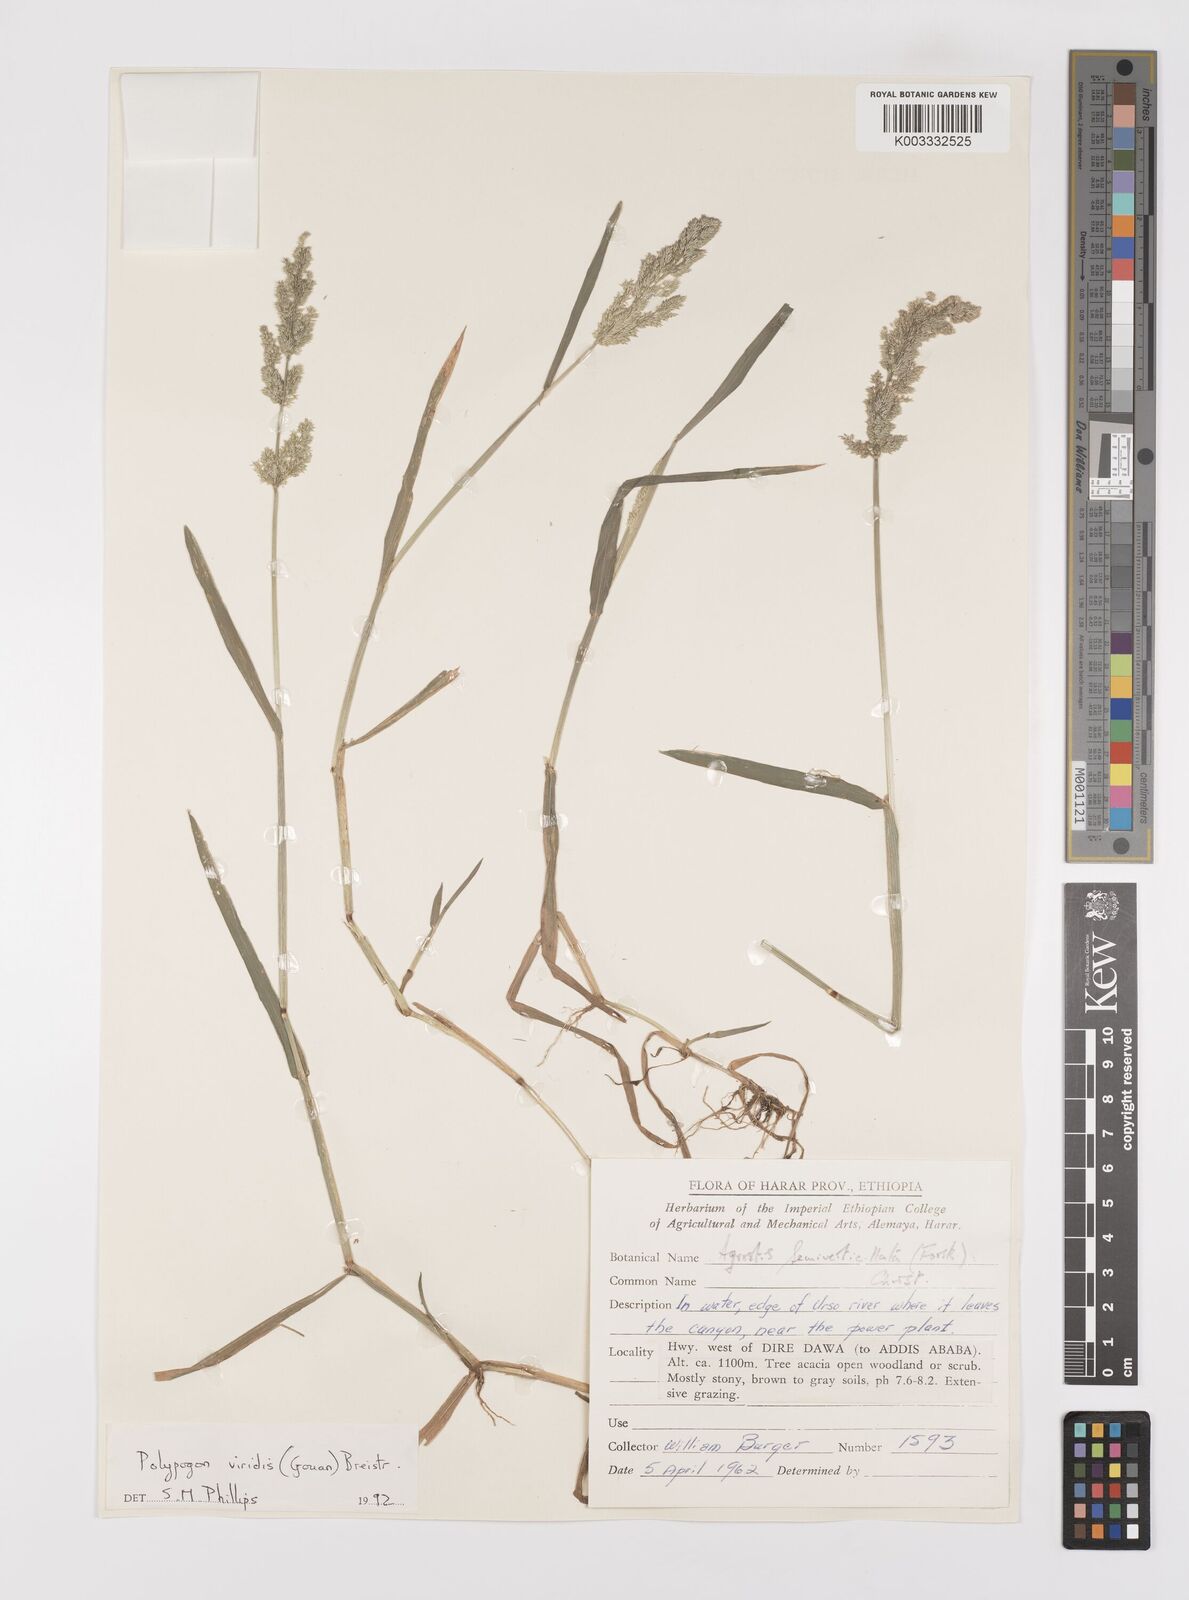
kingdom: Plantae
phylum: Tracheophyta
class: Liliopsida
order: Poales
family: Poaceae
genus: Polypogon
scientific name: Polypogon viridis
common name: Water bent
